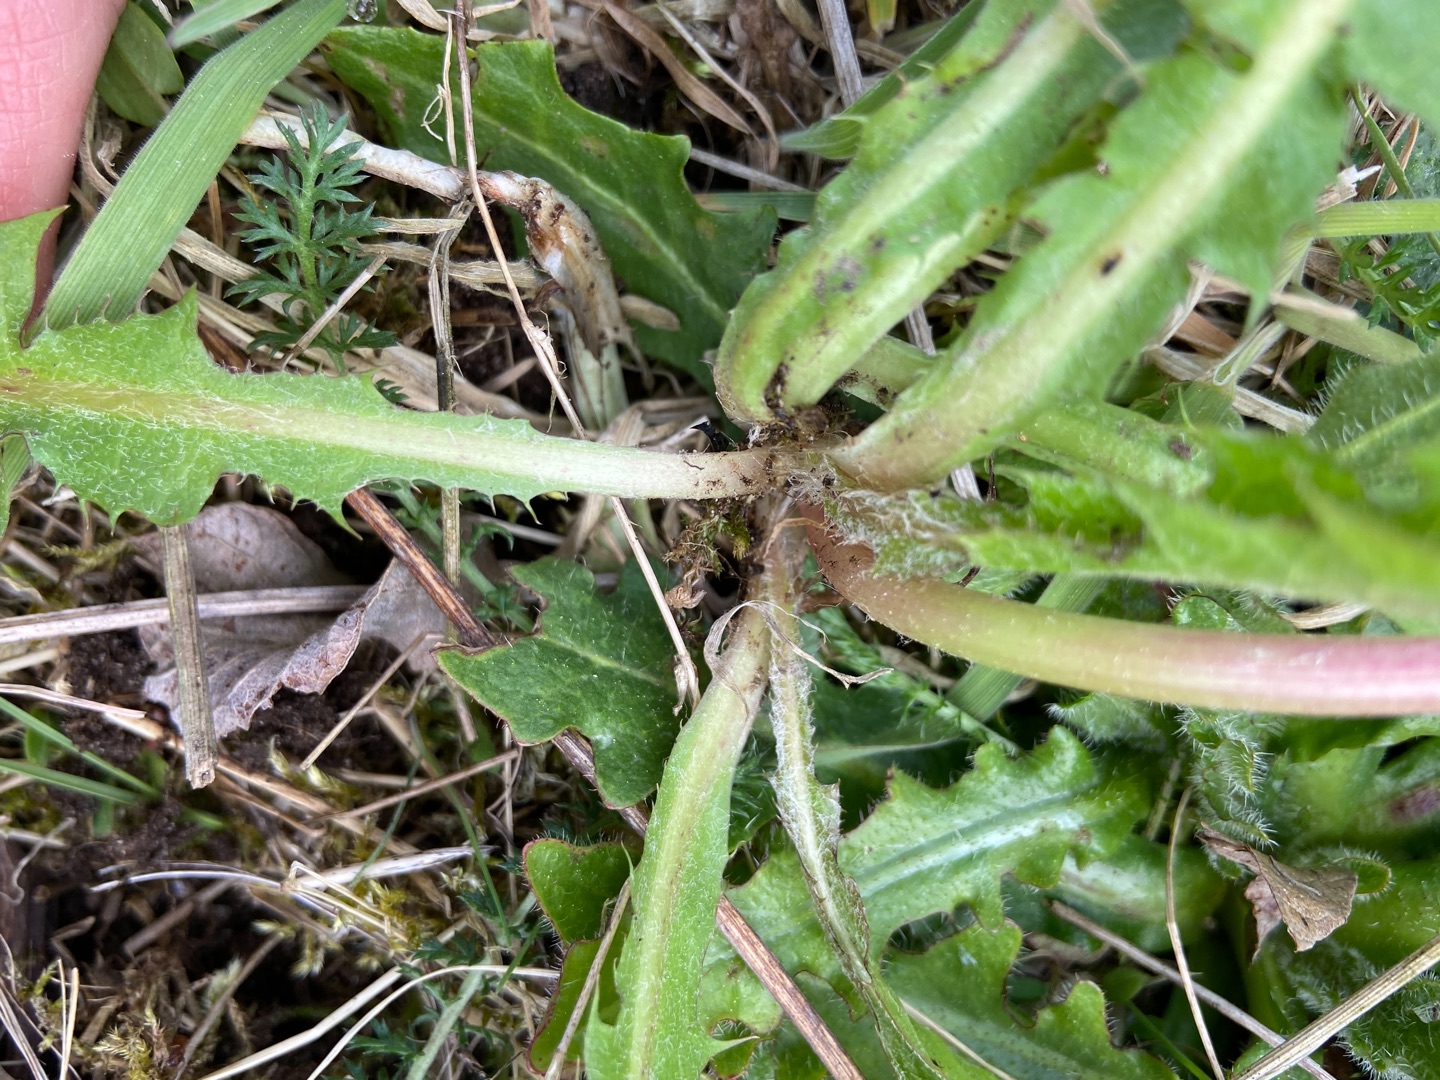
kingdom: Plantae
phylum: Tracheophyta
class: Magnoliopsida
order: Asterales
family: Asteraceae
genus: Taraxacum
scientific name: Taraxacum
